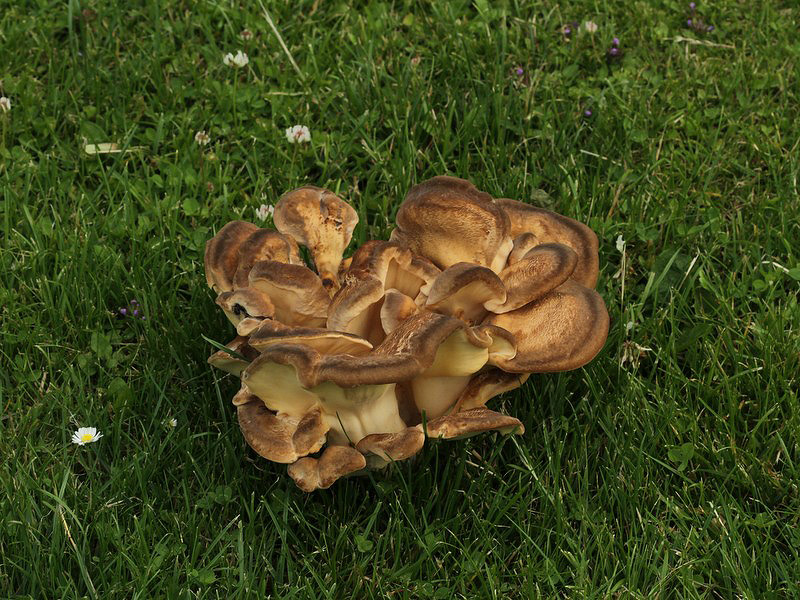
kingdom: Fungi
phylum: Basidiomycota
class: Agaricomycetes
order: Polyporales
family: Meripilaceae
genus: Meripilus
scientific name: Meripilus giganteus
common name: kæmpeporesvamp
